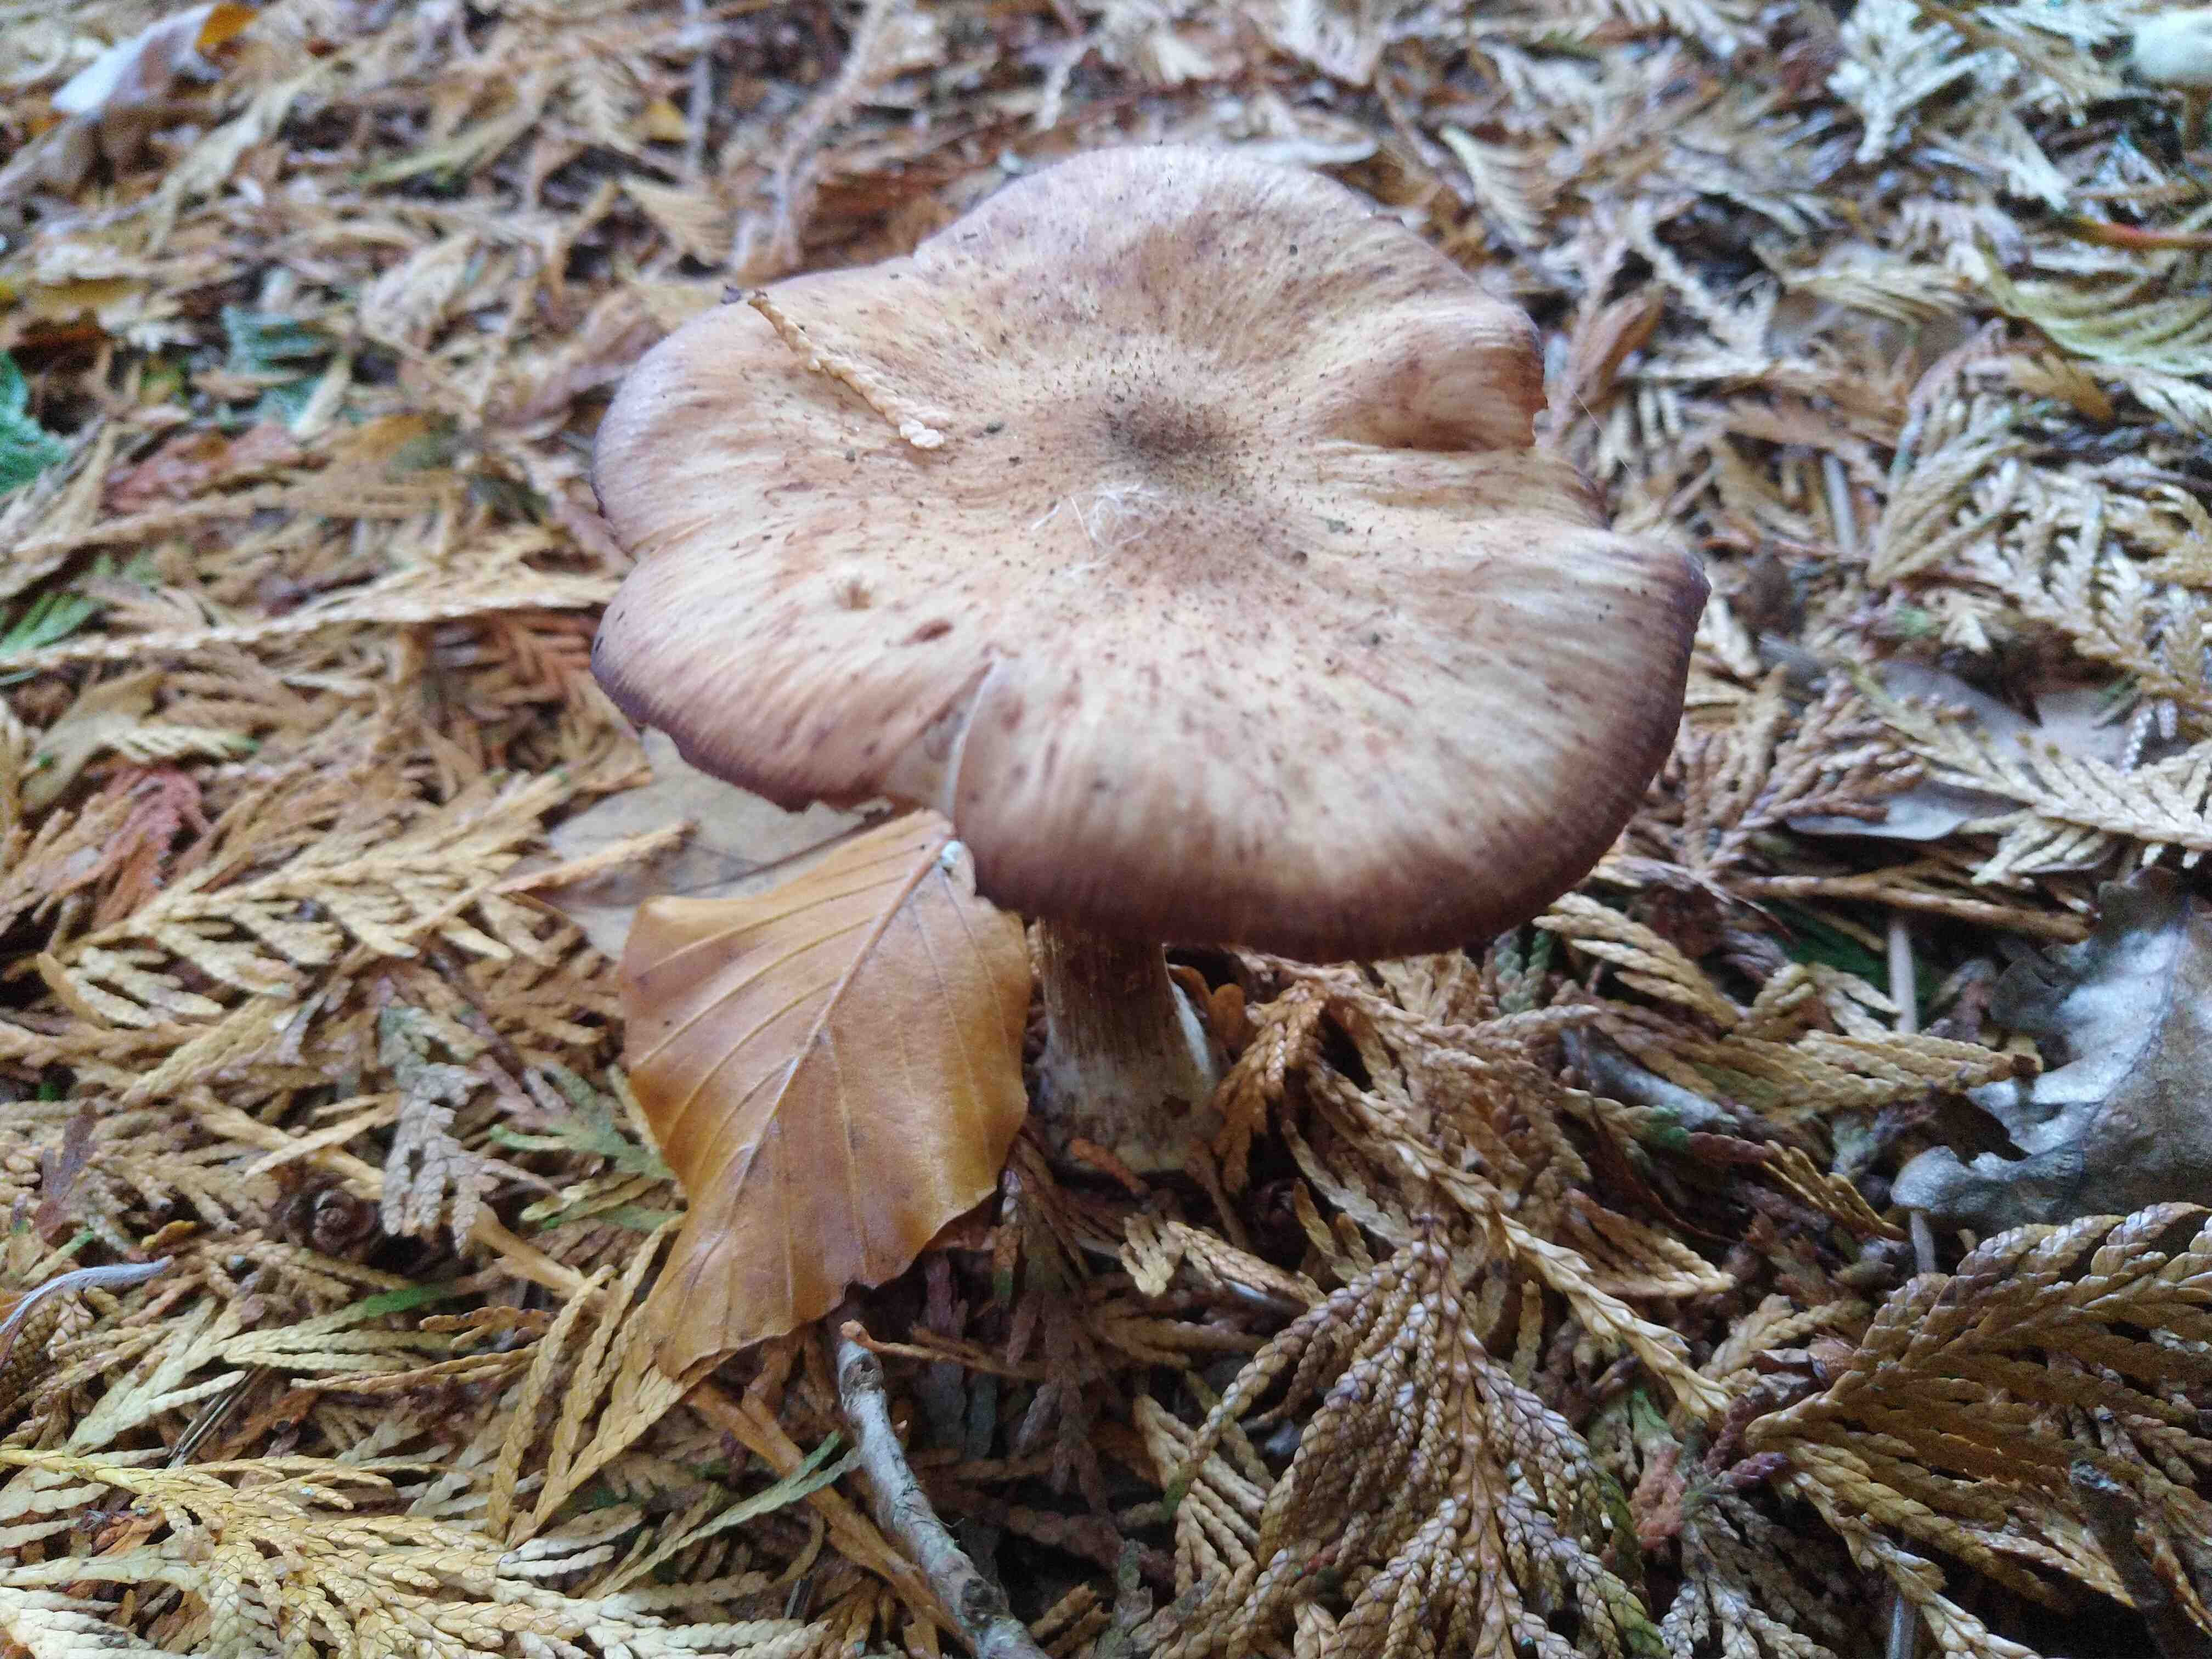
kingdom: Fungi
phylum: Basidiomycota
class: Agaricomycetes
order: Agaricales
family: Physalacriaceae
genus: Armillaria
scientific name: Armillaria
